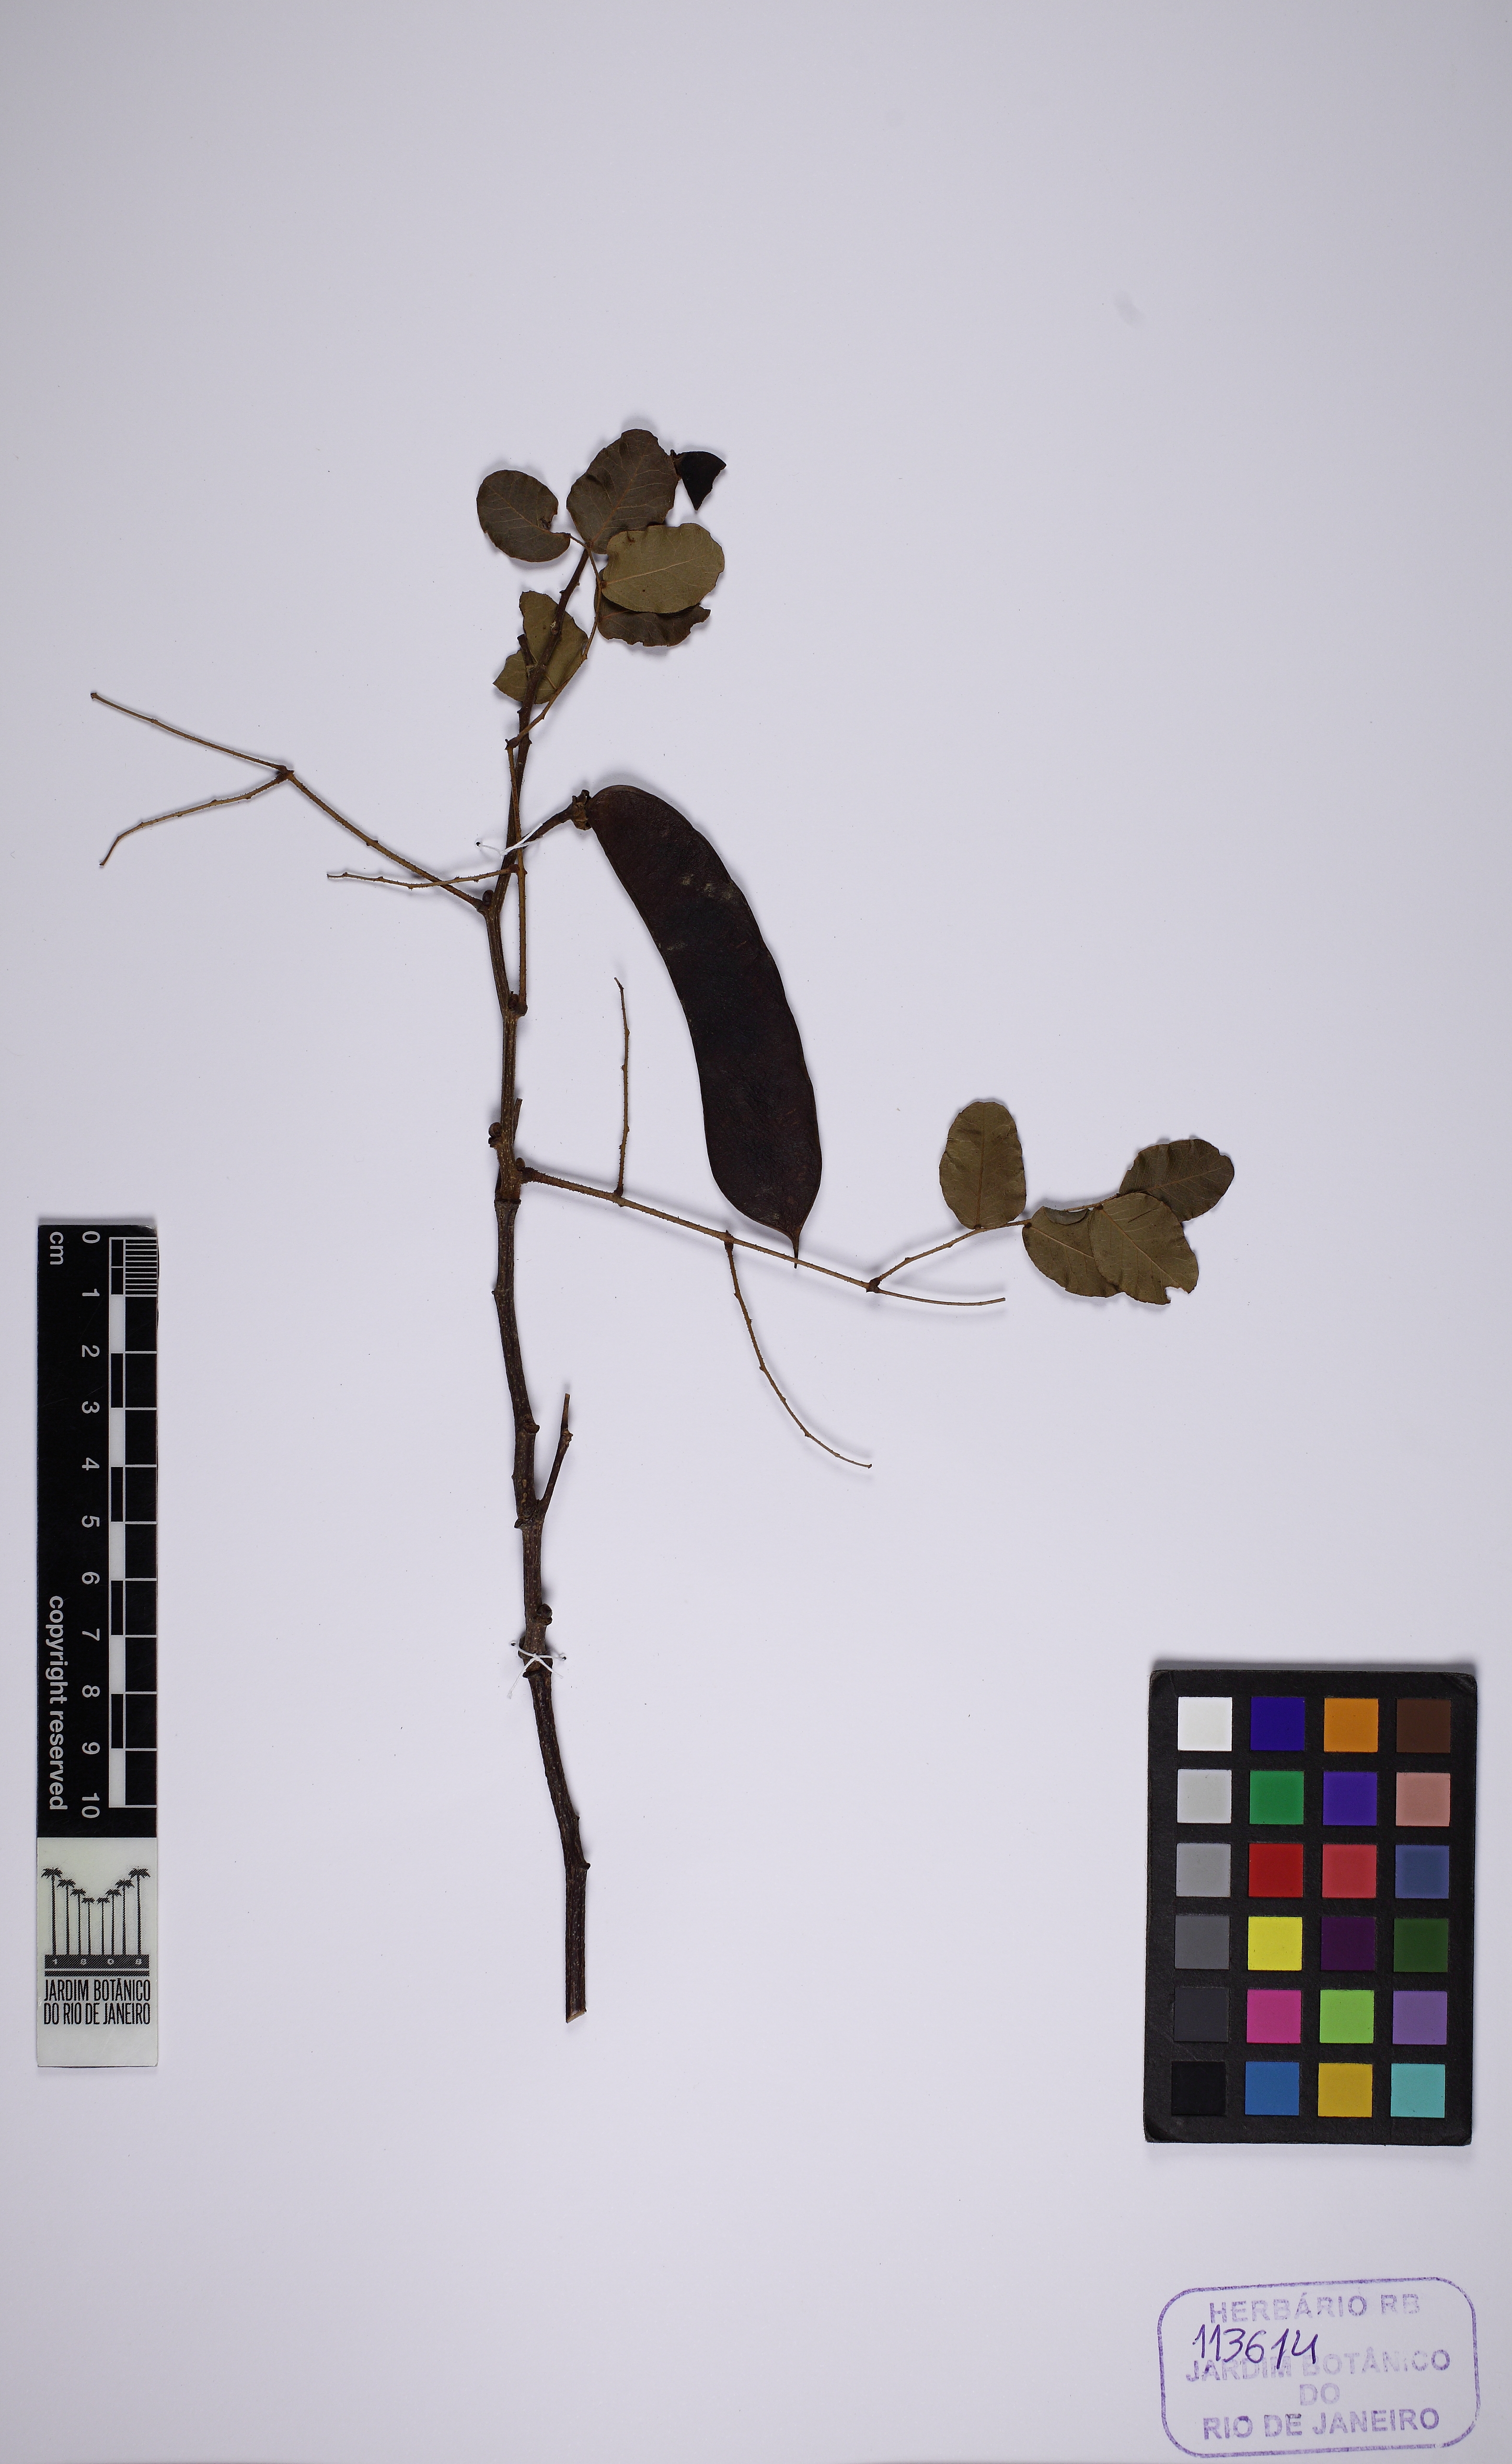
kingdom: Plantae
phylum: Tracheophyta
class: Magnoliopsida
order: Fabales
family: Fabaceae
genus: Cenostigma
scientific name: Cenostigma laxiflorum
